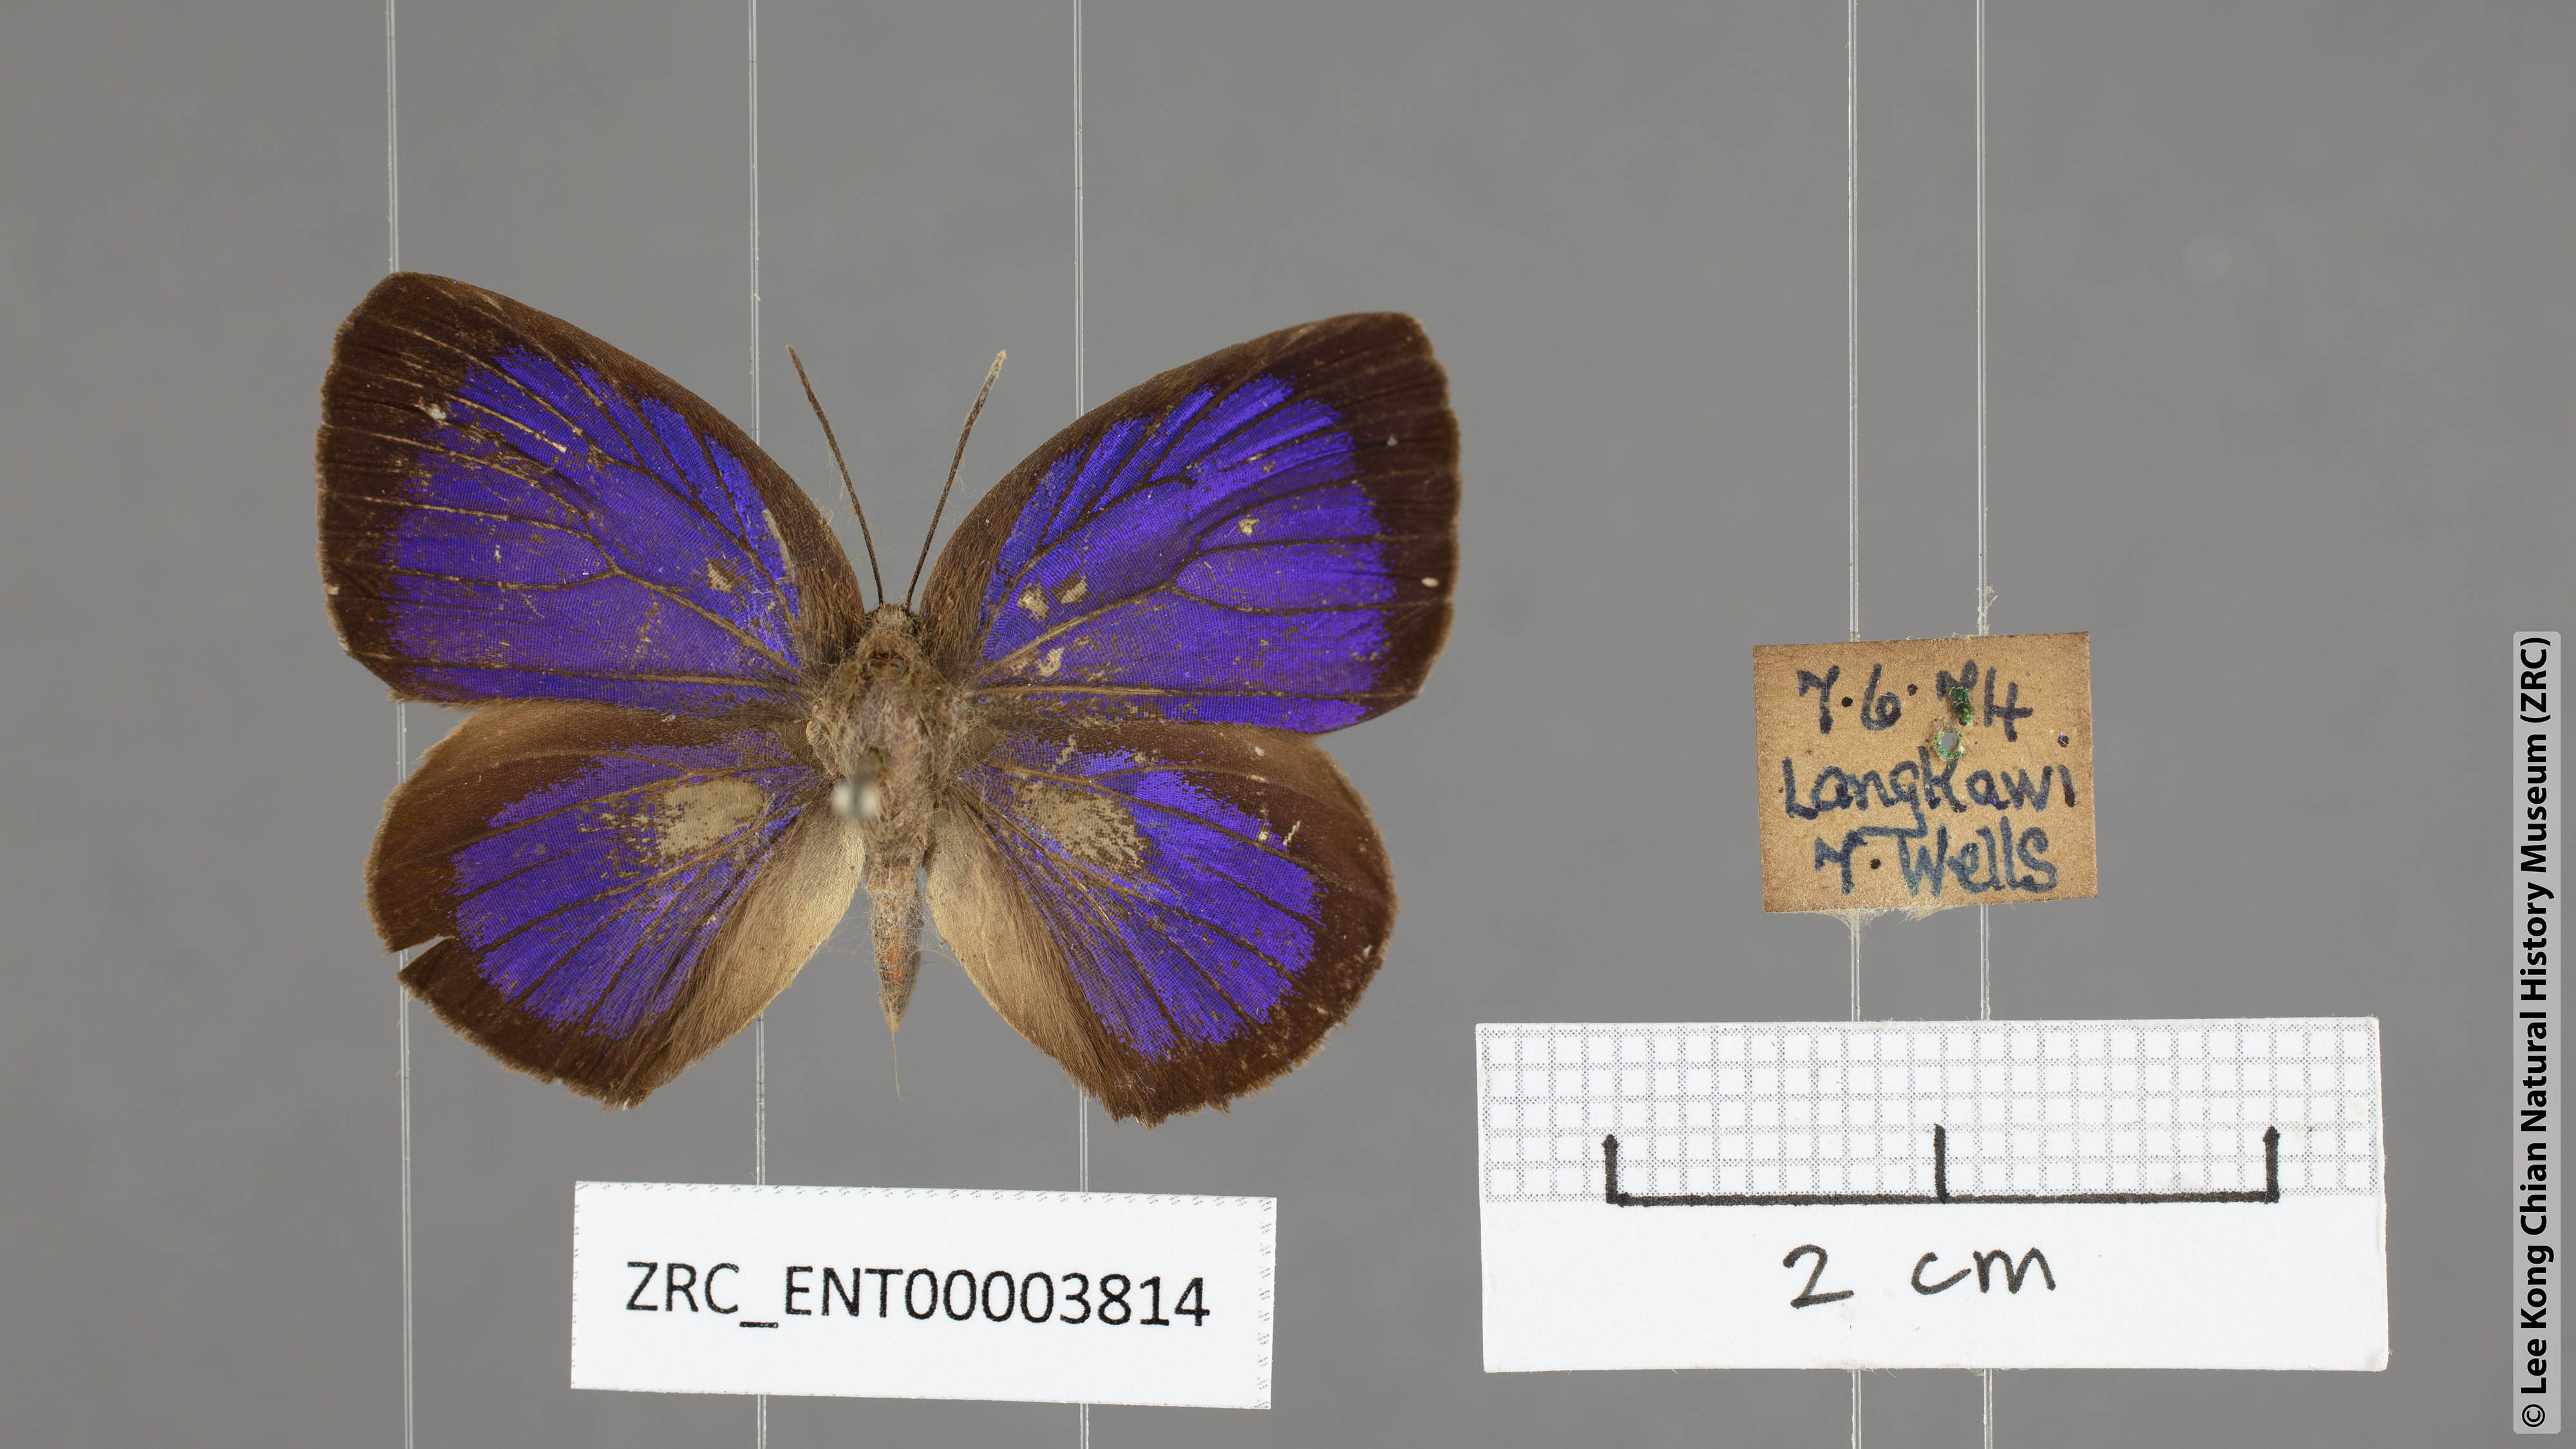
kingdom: Animalia
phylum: Arthropoda
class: Insecta
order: Lepidoptera
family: Lycaenidae
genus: Arhopala
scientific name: Arhopala agesilaus
